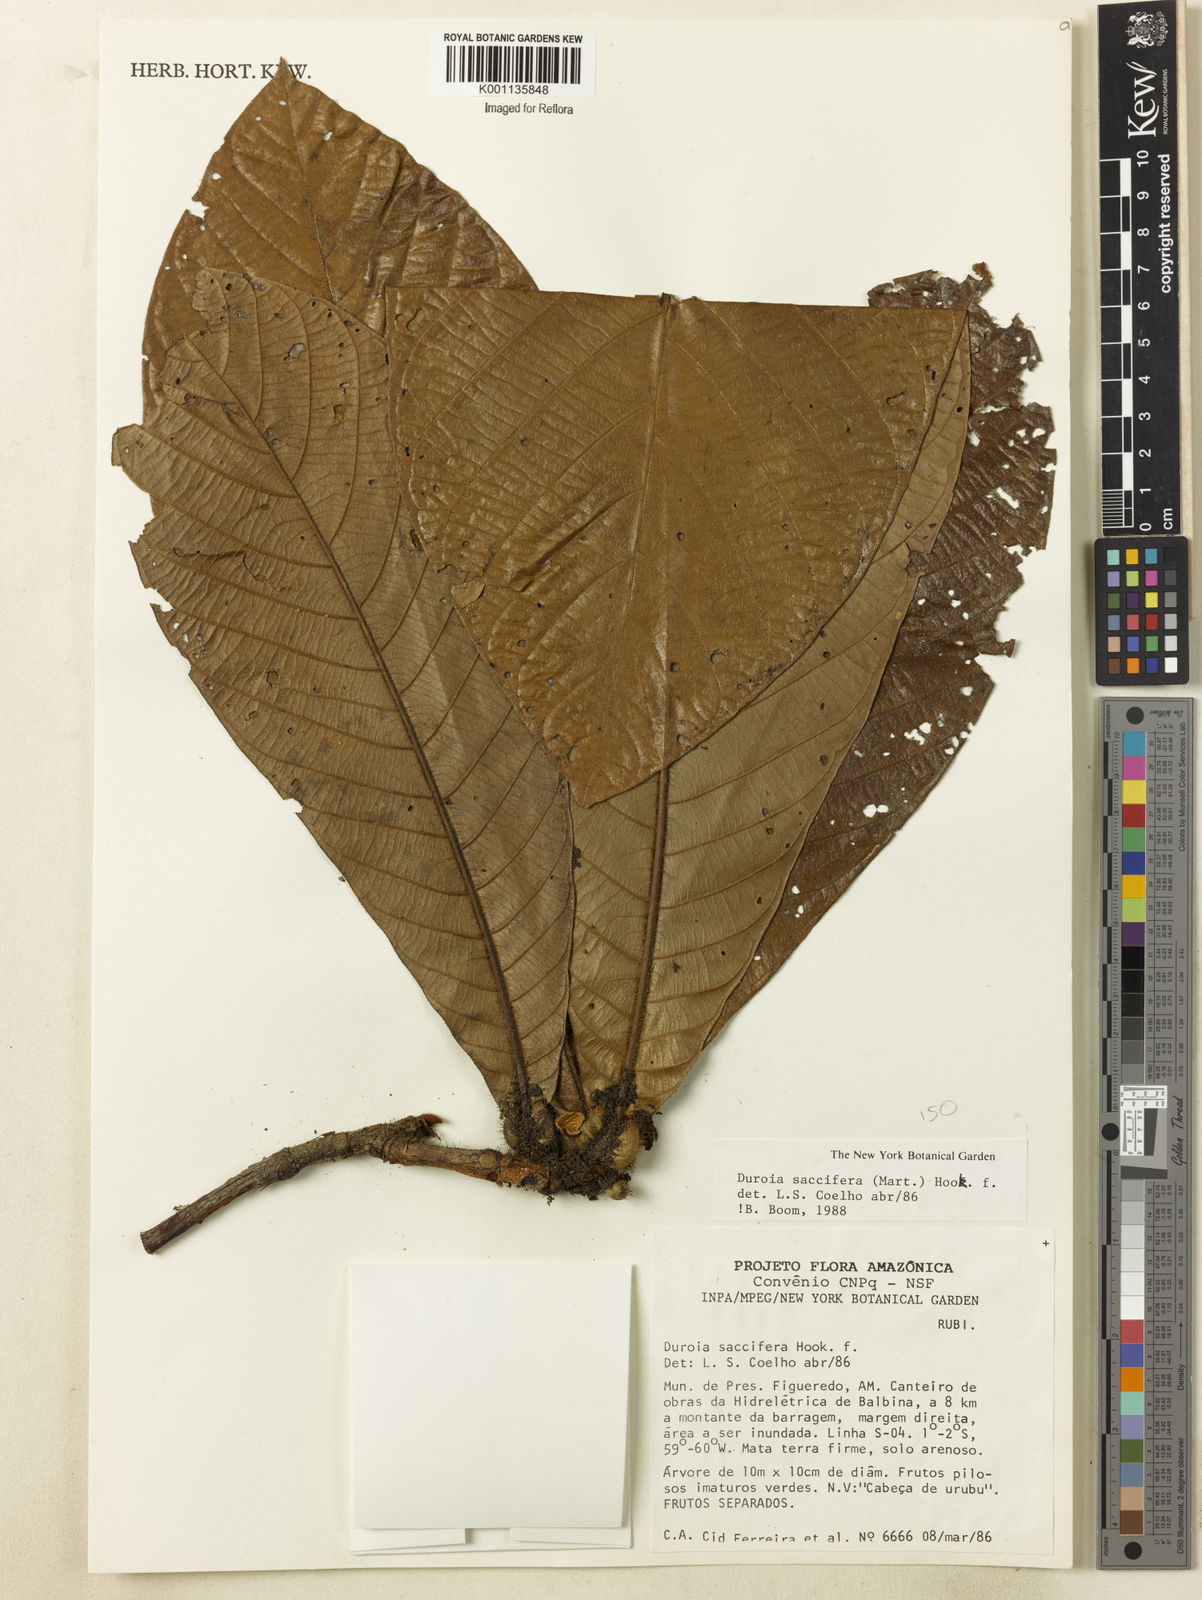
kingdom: Plantae
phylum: Tracheophyta
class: Magnoliopsida
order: Gentianales
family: Rubiaceae
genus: Duroia
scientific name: Duroia saccifera
